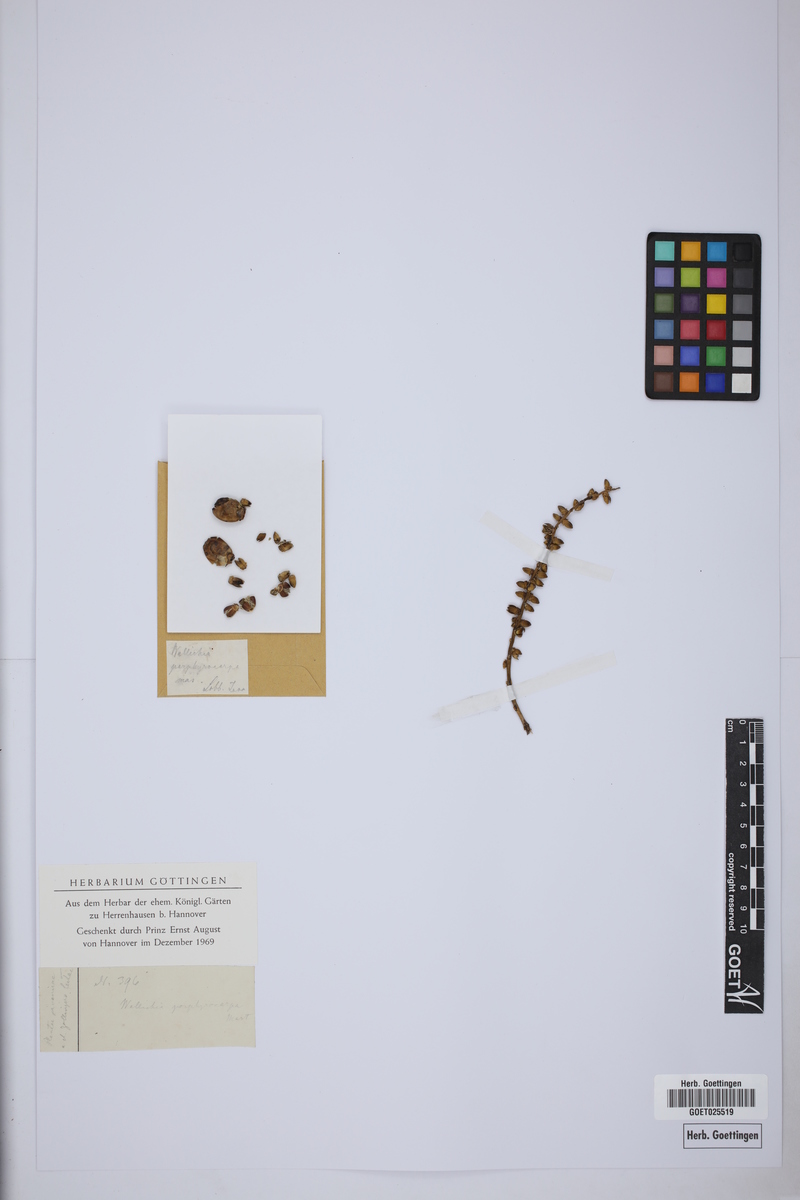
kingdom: Plantae
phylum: Tracheophyta
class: Liliopsida
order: Arecales
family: Arecaceae
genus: Arenga
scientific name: Arenga porphyrocarpa
